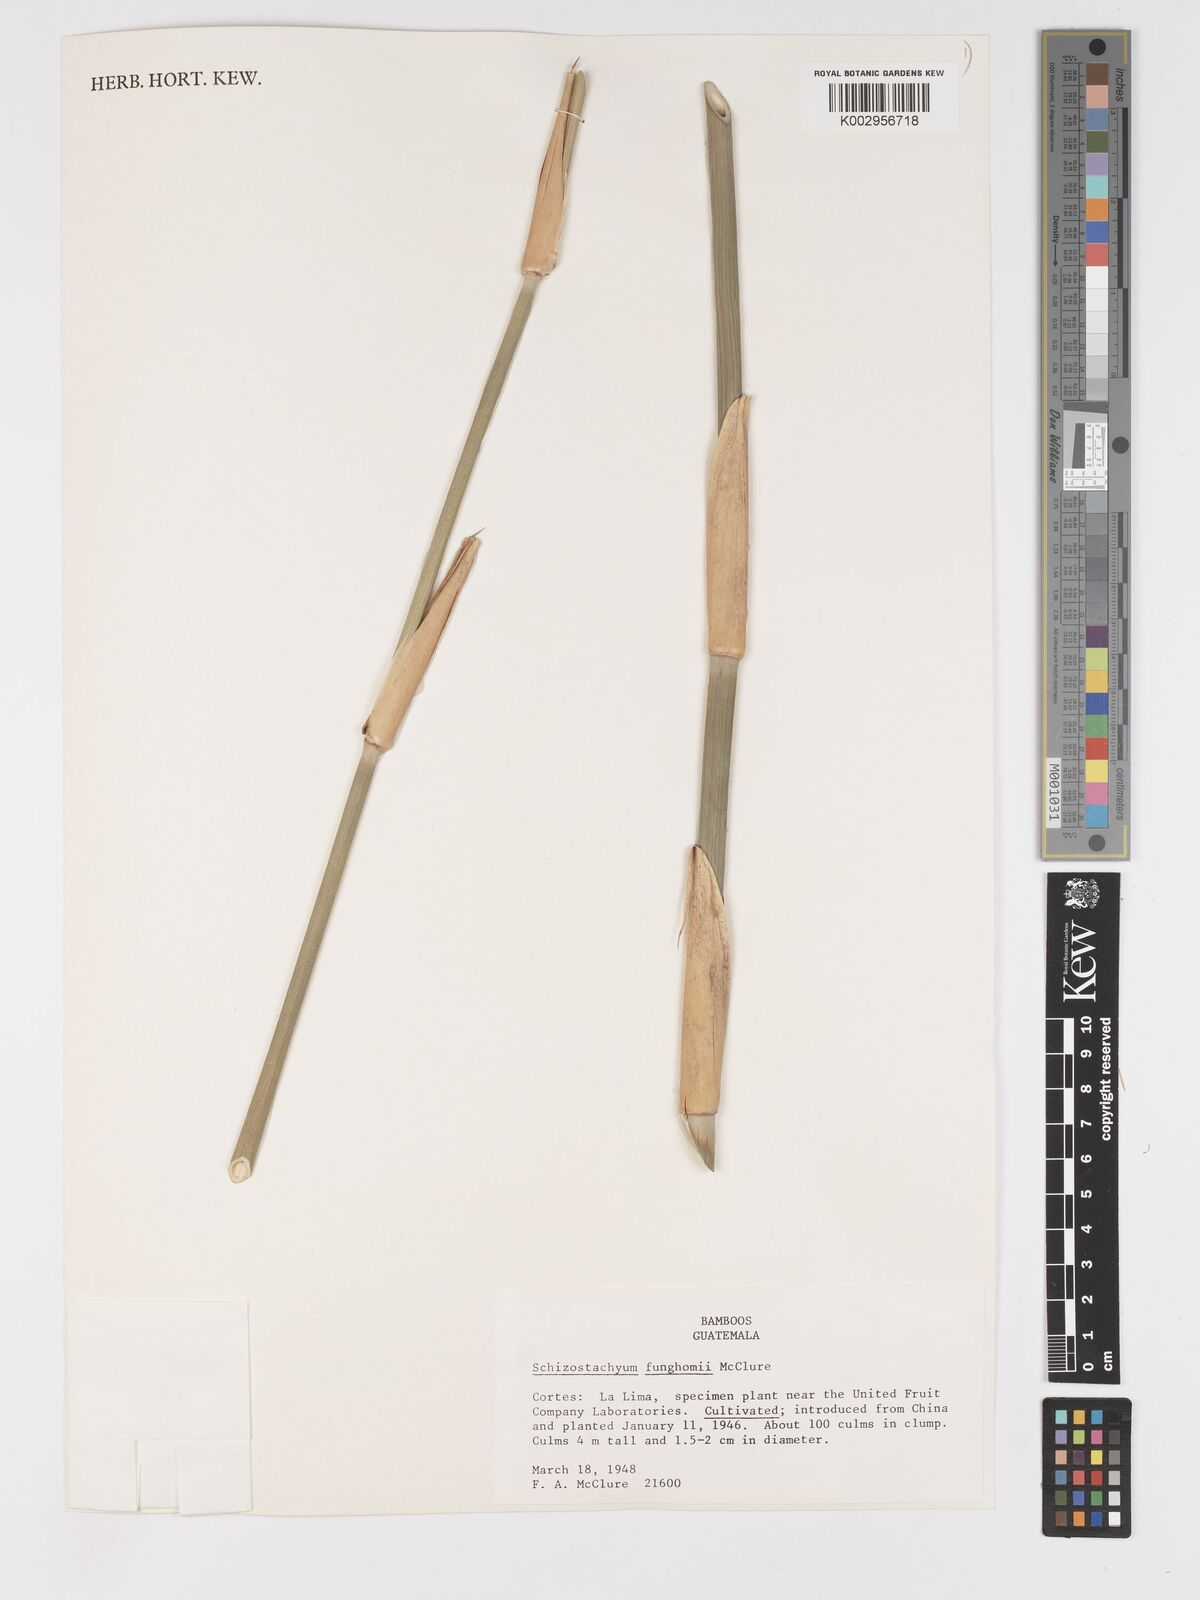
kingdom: Plantae
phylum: Tracheophyta
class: Liliopsida
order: Poales
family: Poaceae
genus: Schizostachyum
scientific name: Schizostachyum funghomii
